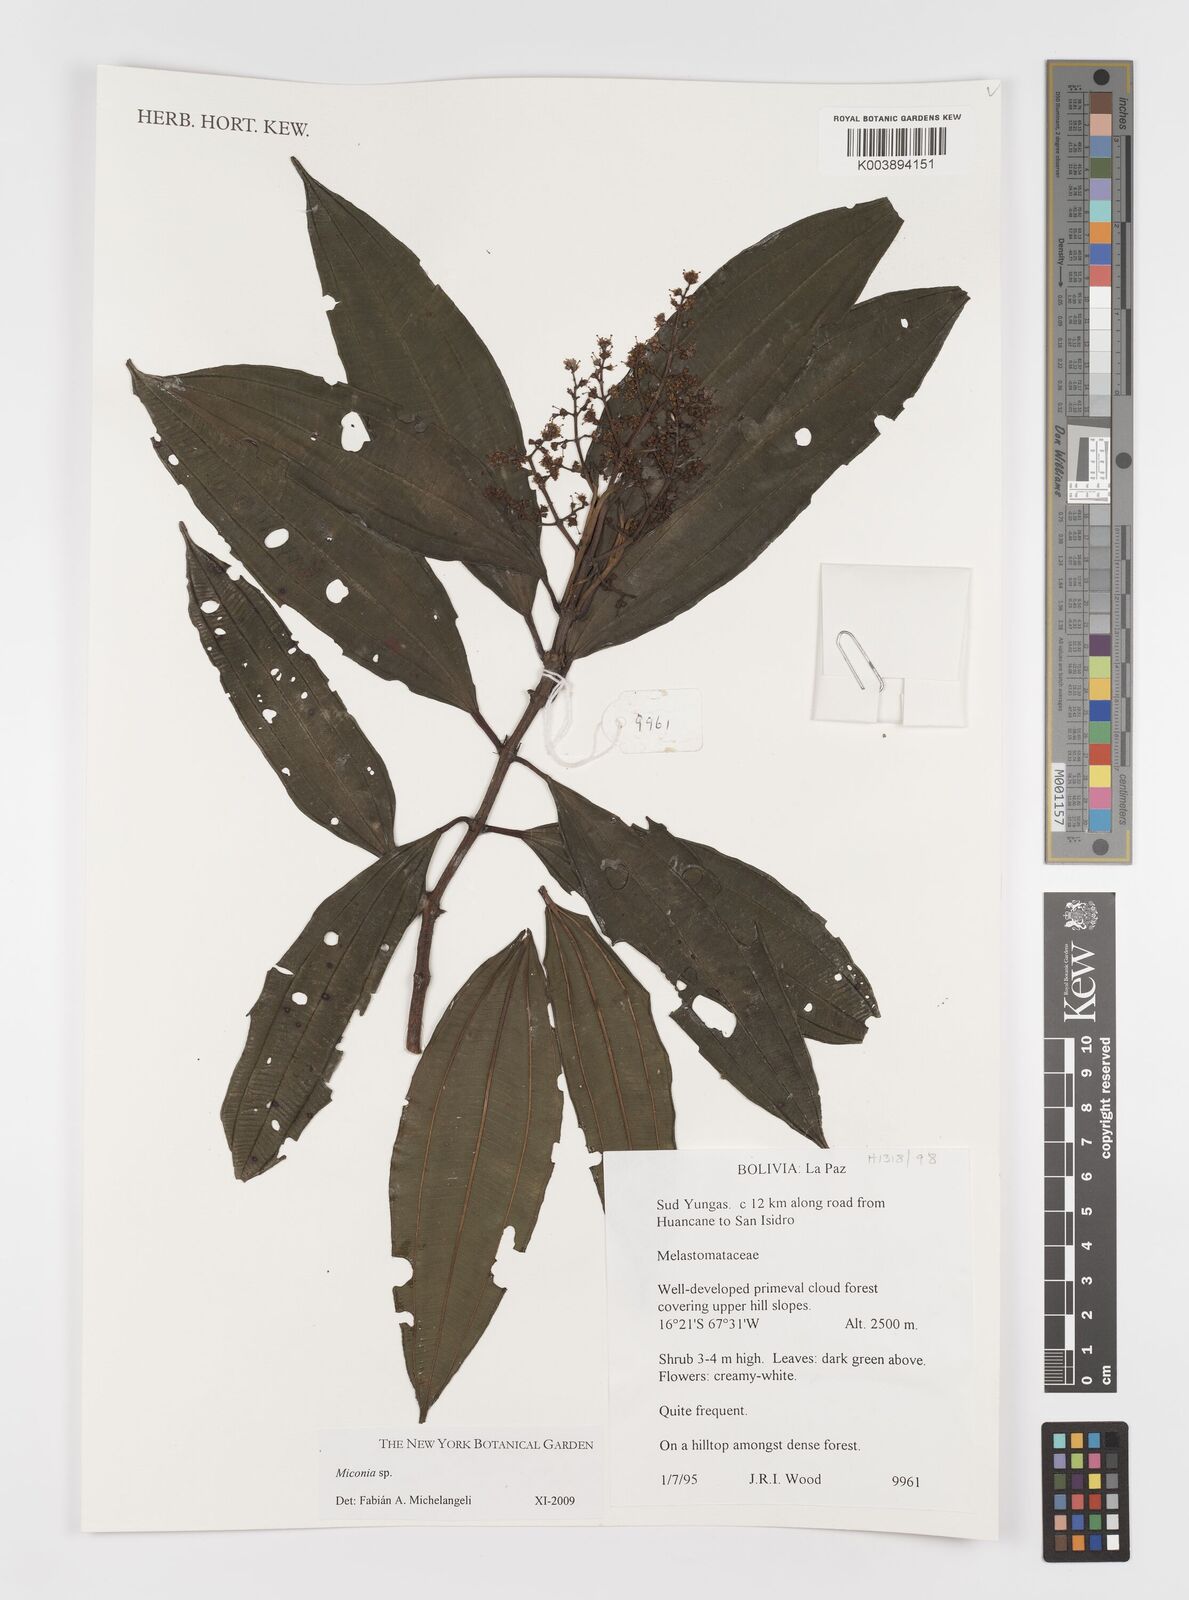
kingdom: Plantae
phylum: Tracheophyta
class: Magnoliopsida
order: Myrtales
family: Melastomataceae
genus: Miconia
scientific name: Miconia
